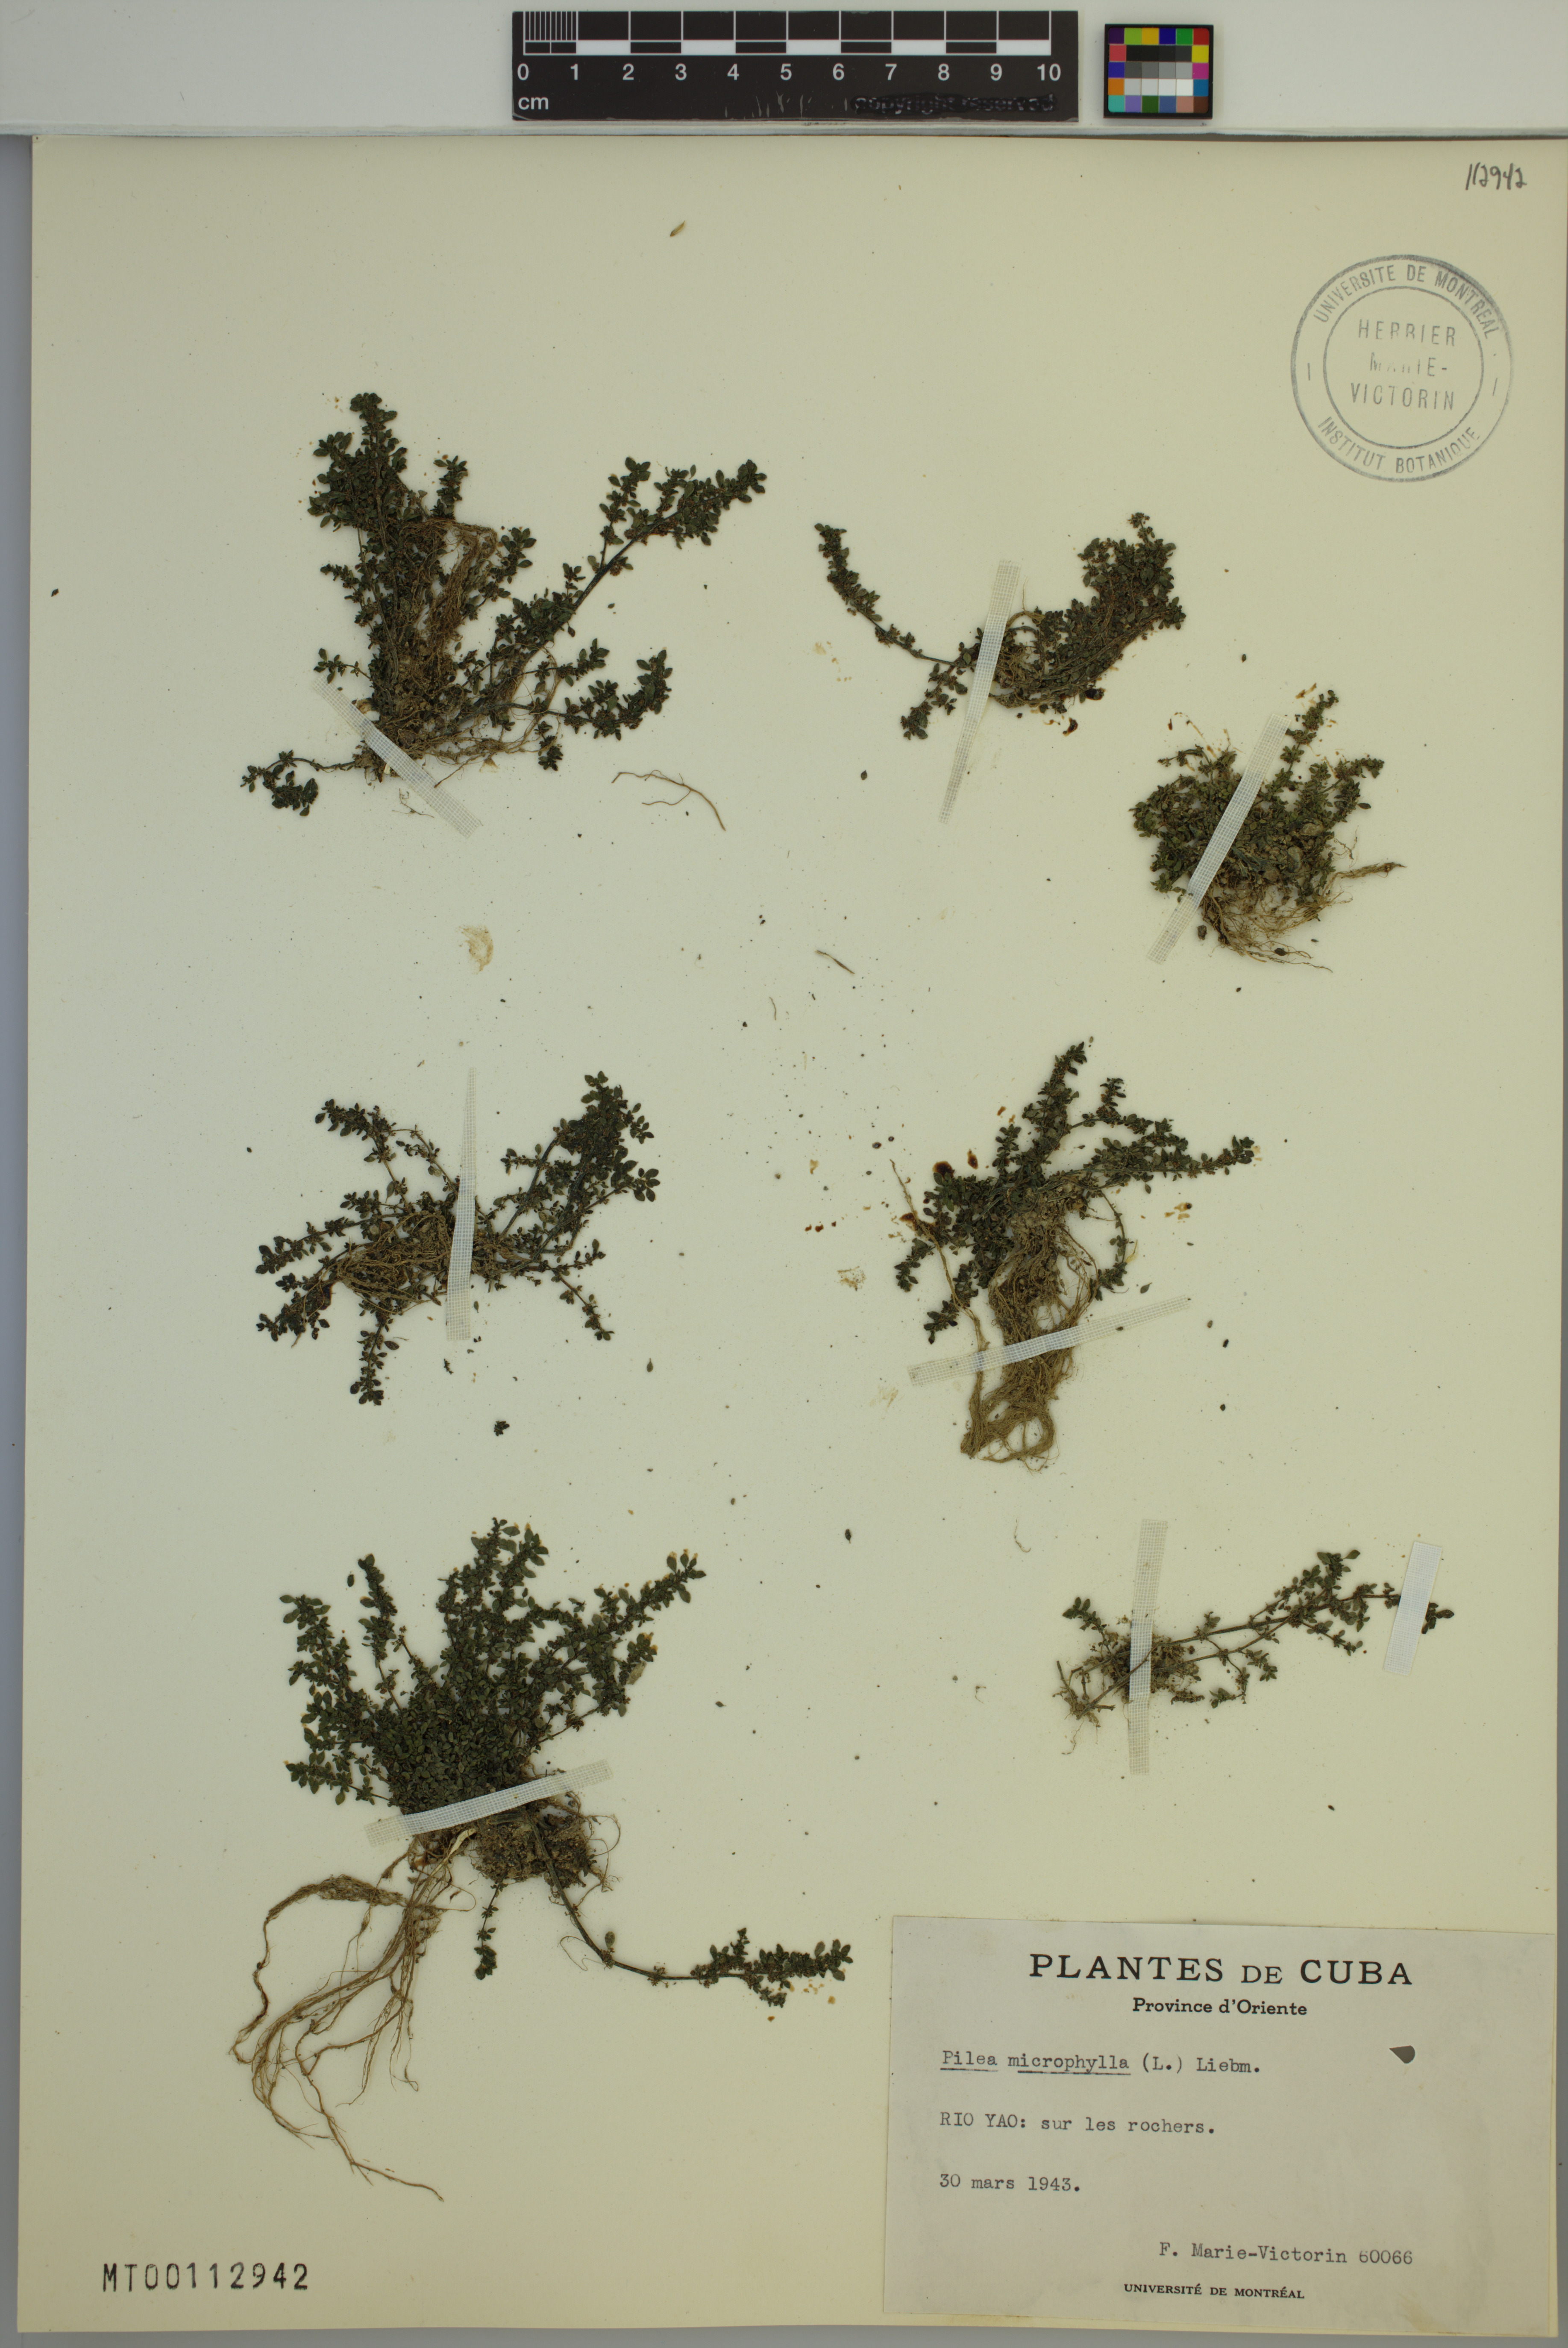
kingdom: Plantae
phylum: Tracheophyta
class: Magnoliopsida
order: Rosales
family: Urticaceae
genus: Pilea
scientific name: Pilea microphylla
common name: Artillery-plant
